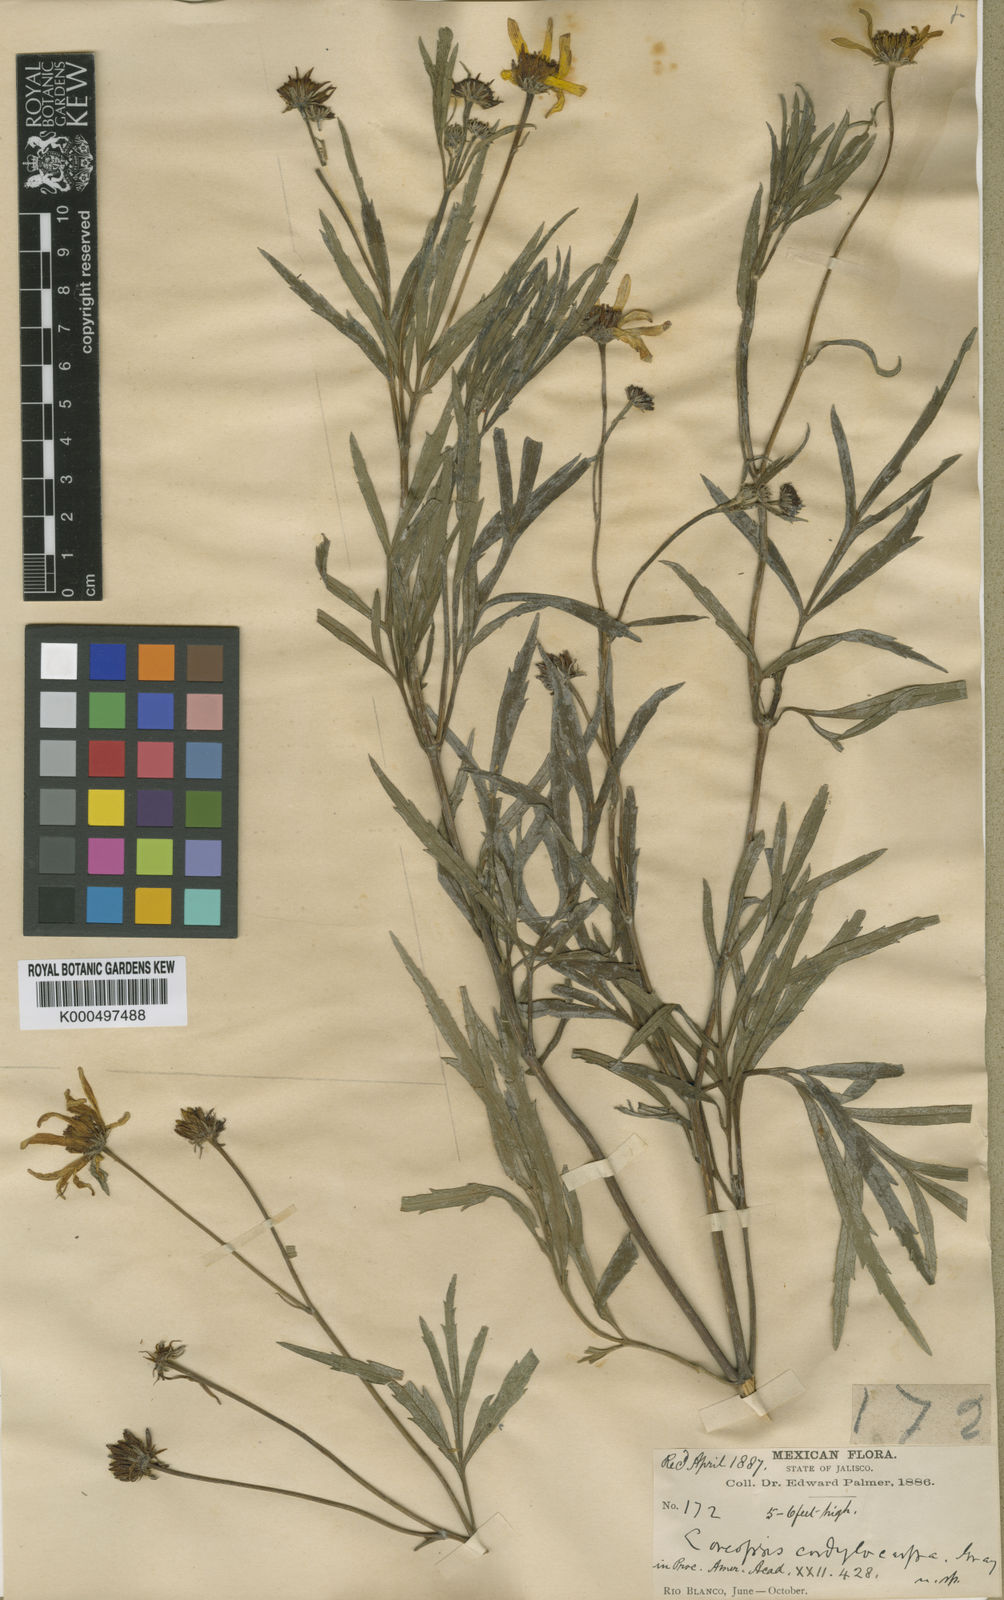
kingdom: Plantae
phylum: Tracheophyta
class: Magnoliopsida
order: Asterales
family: Asteraceae
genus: Bidens
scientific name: Bidens cordylocarpa
